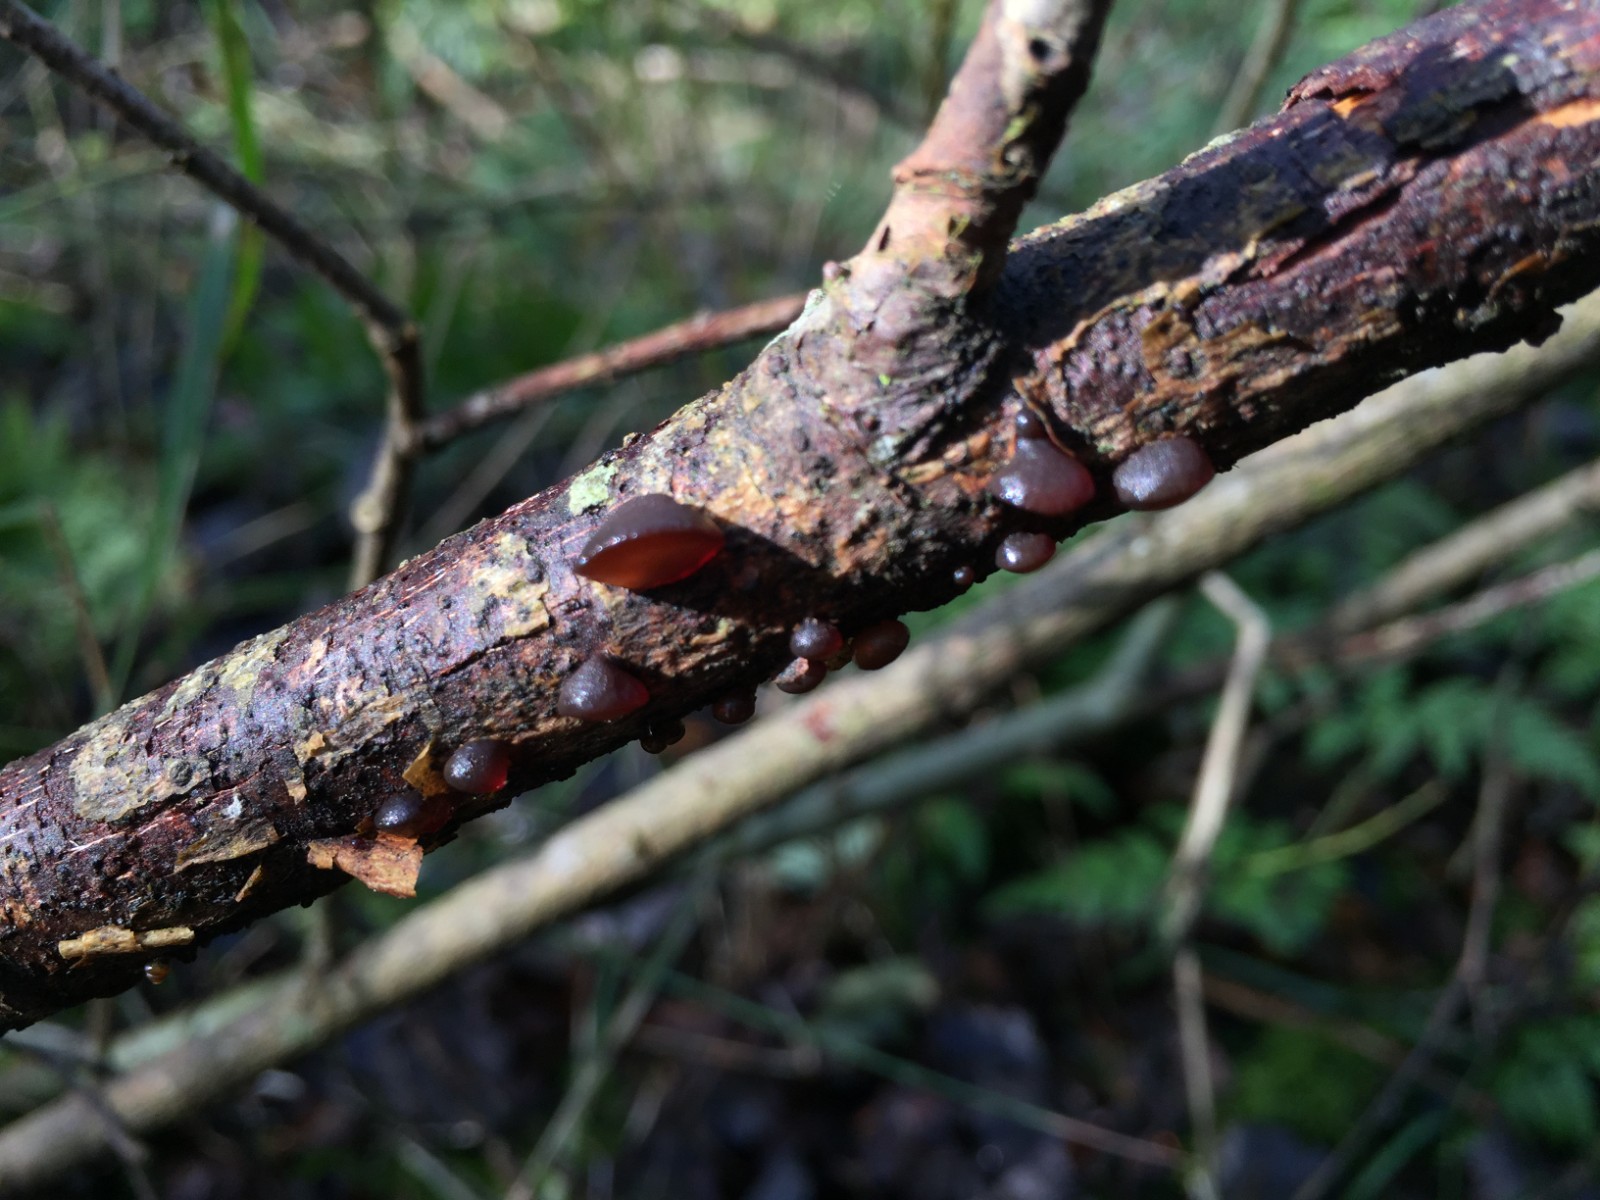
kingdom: Fungi
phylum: Basidiomycota
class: Agaricomycetes
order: Auriculariales
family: Auriculariaceae
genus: Exidia
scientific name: Exidia recisa
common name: pile-bævretop
